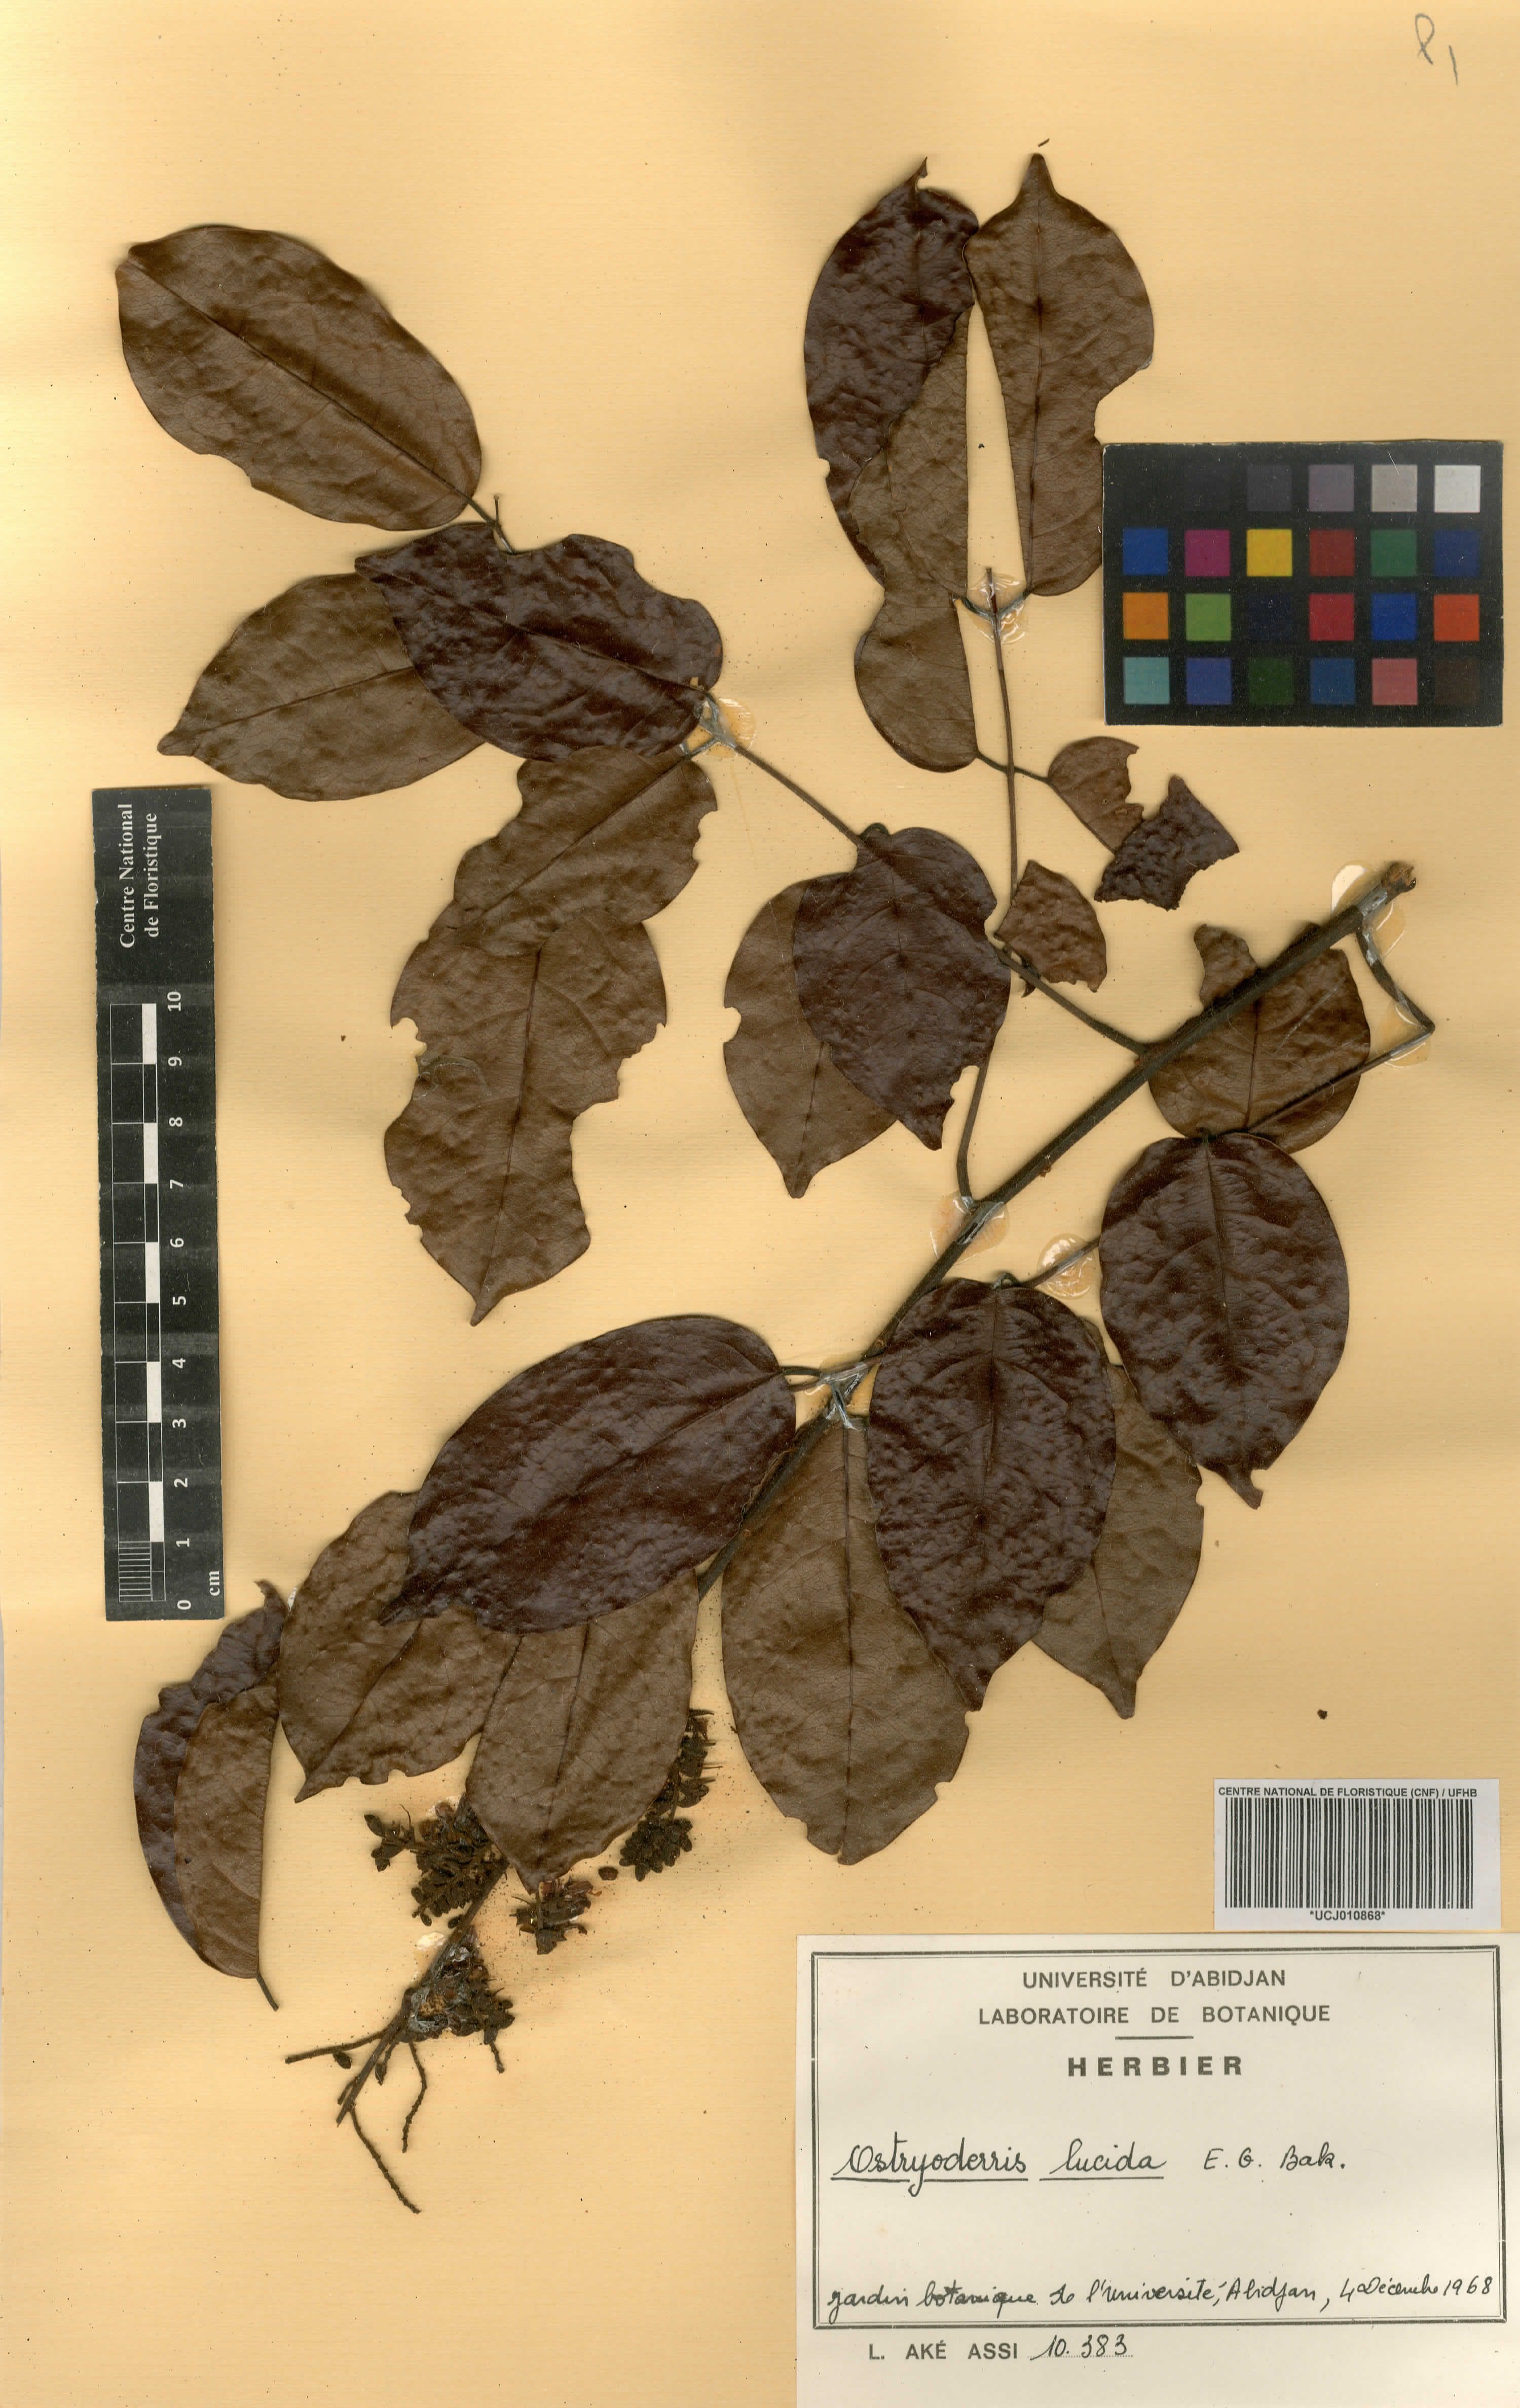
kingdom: Plantae
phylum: Tracheophyta
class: Magnoliopsida
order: Fabales
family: Fabaceae
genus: Aganope
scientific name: Aganope lucida
